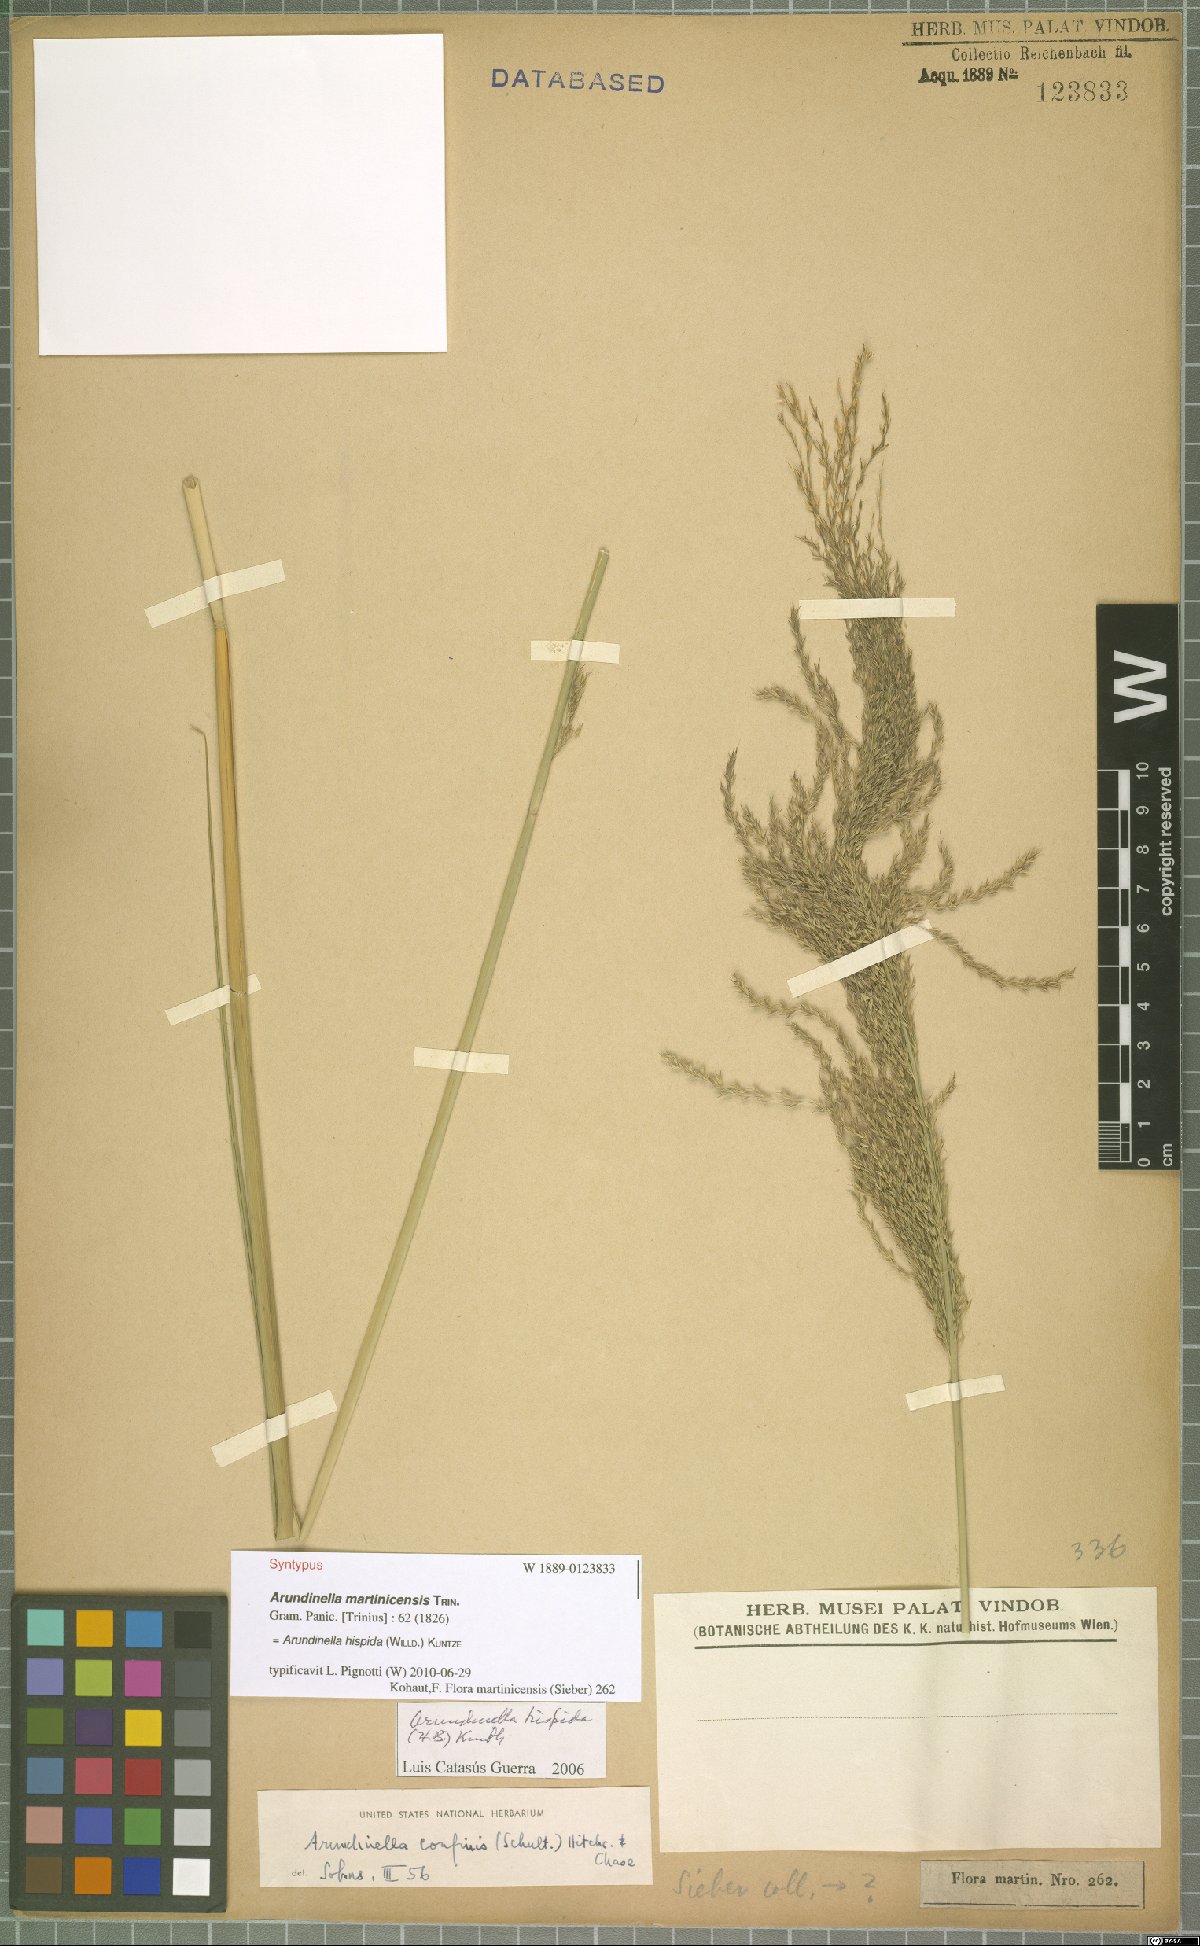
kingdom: Plantae
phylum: Tracheophyta
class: Liliopsida
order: Poales
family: Poaceae
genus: Arundinella
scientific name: Arundinella hispida
